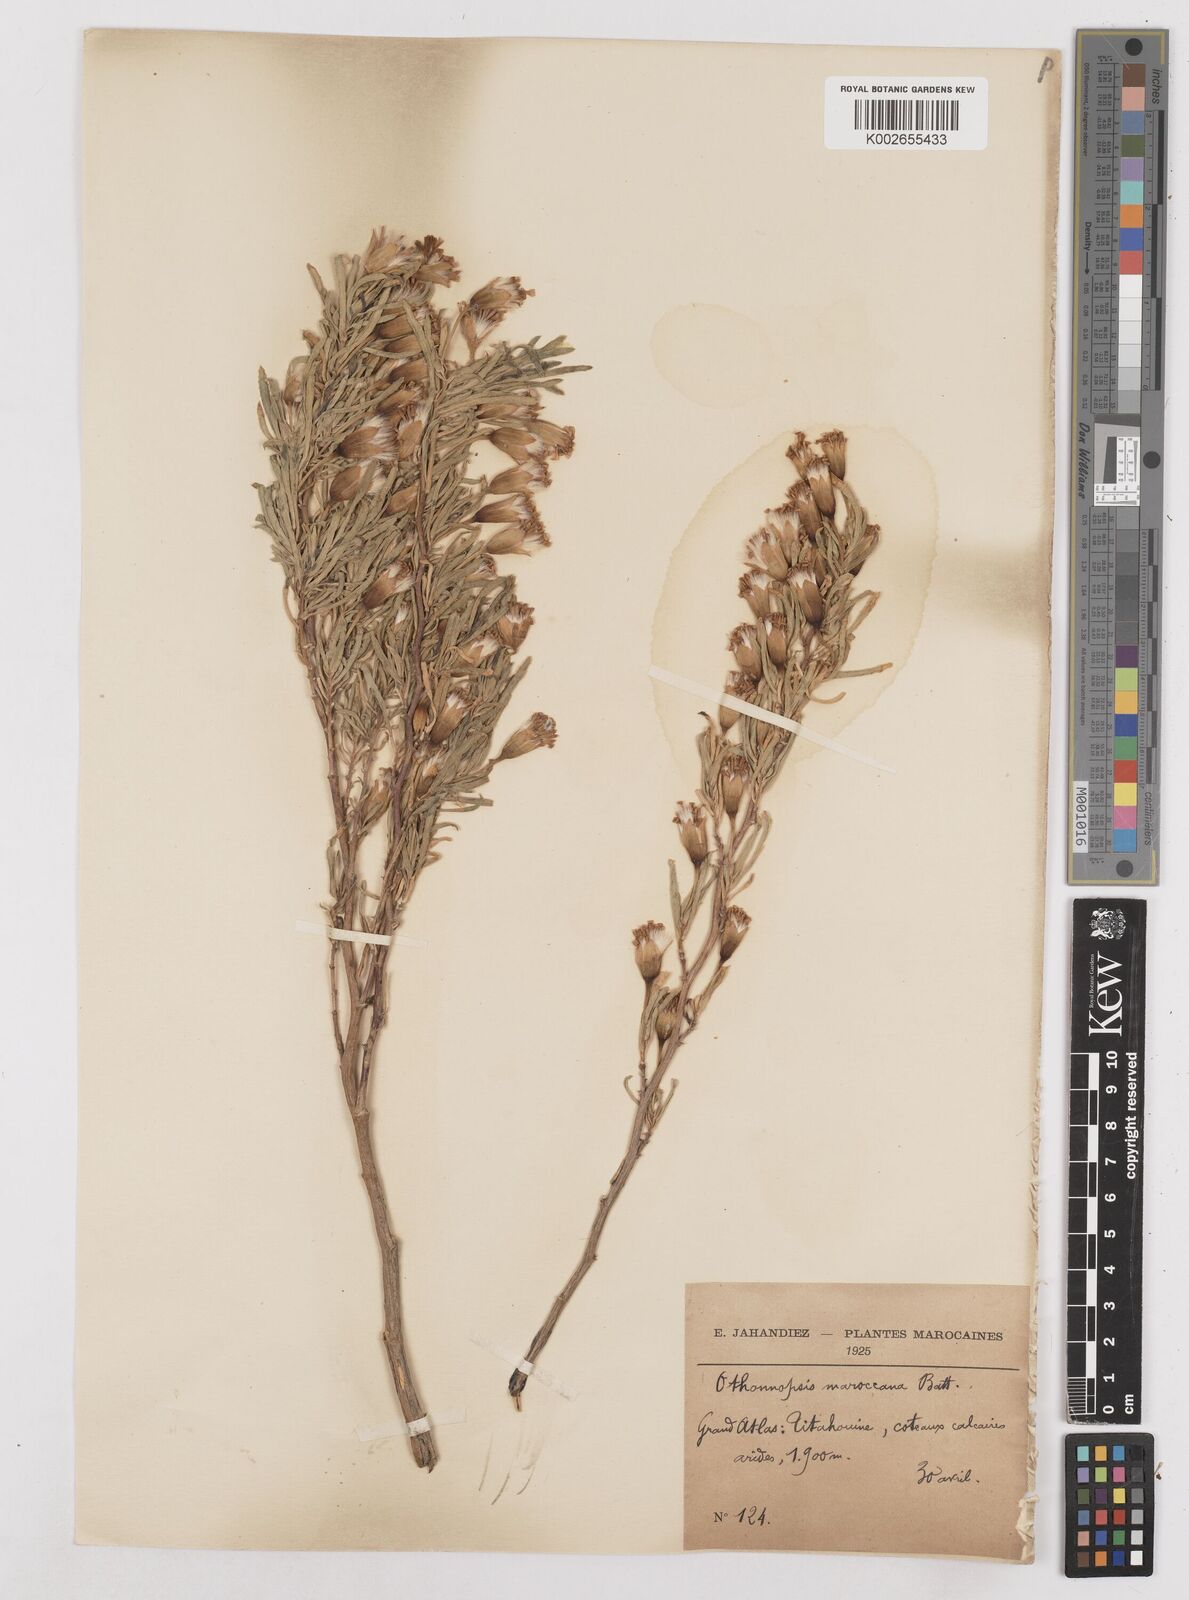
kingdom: Plantae
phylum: Tracheophyta
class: Magnoliopsida
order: Asterales
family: Asteraceae
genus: Hertia
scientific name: Hertia maroccana
